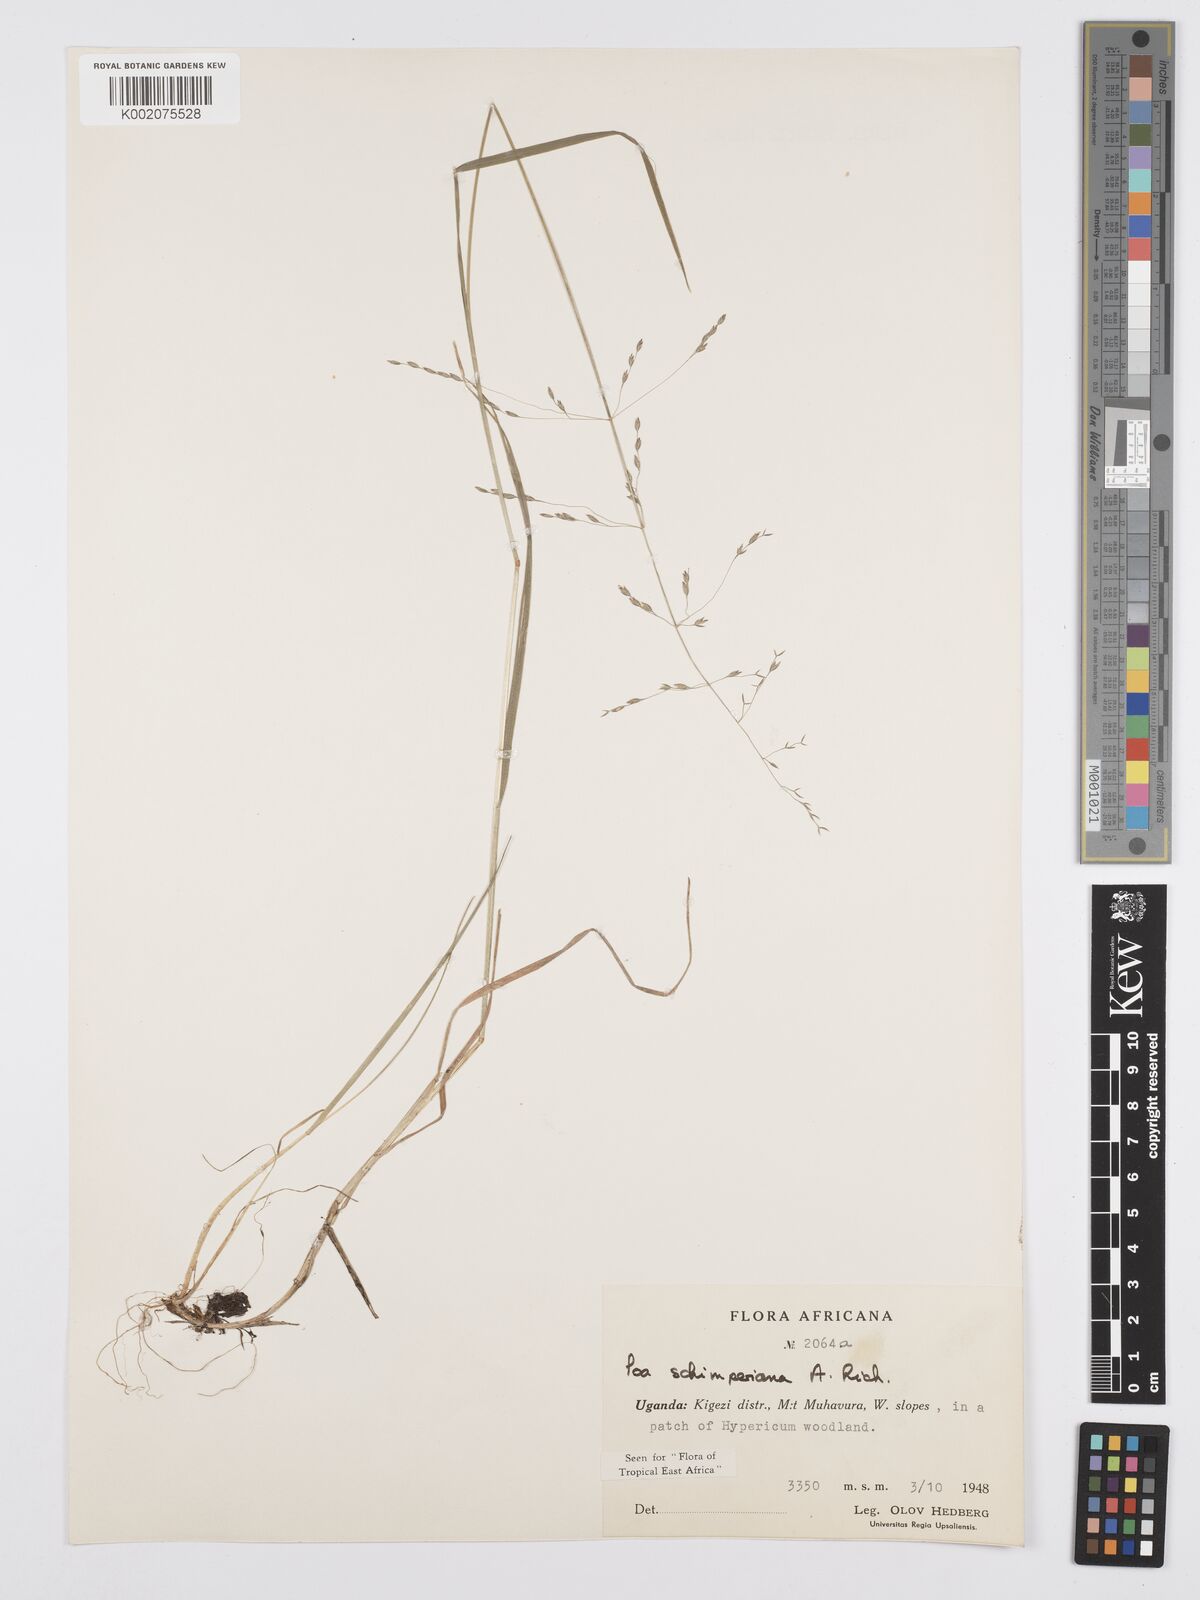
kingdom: Plantae
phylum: Tracheophyta
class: Liliopsida
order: Poales
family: Poaceae
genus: Poa
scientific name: Poa schimperiana
